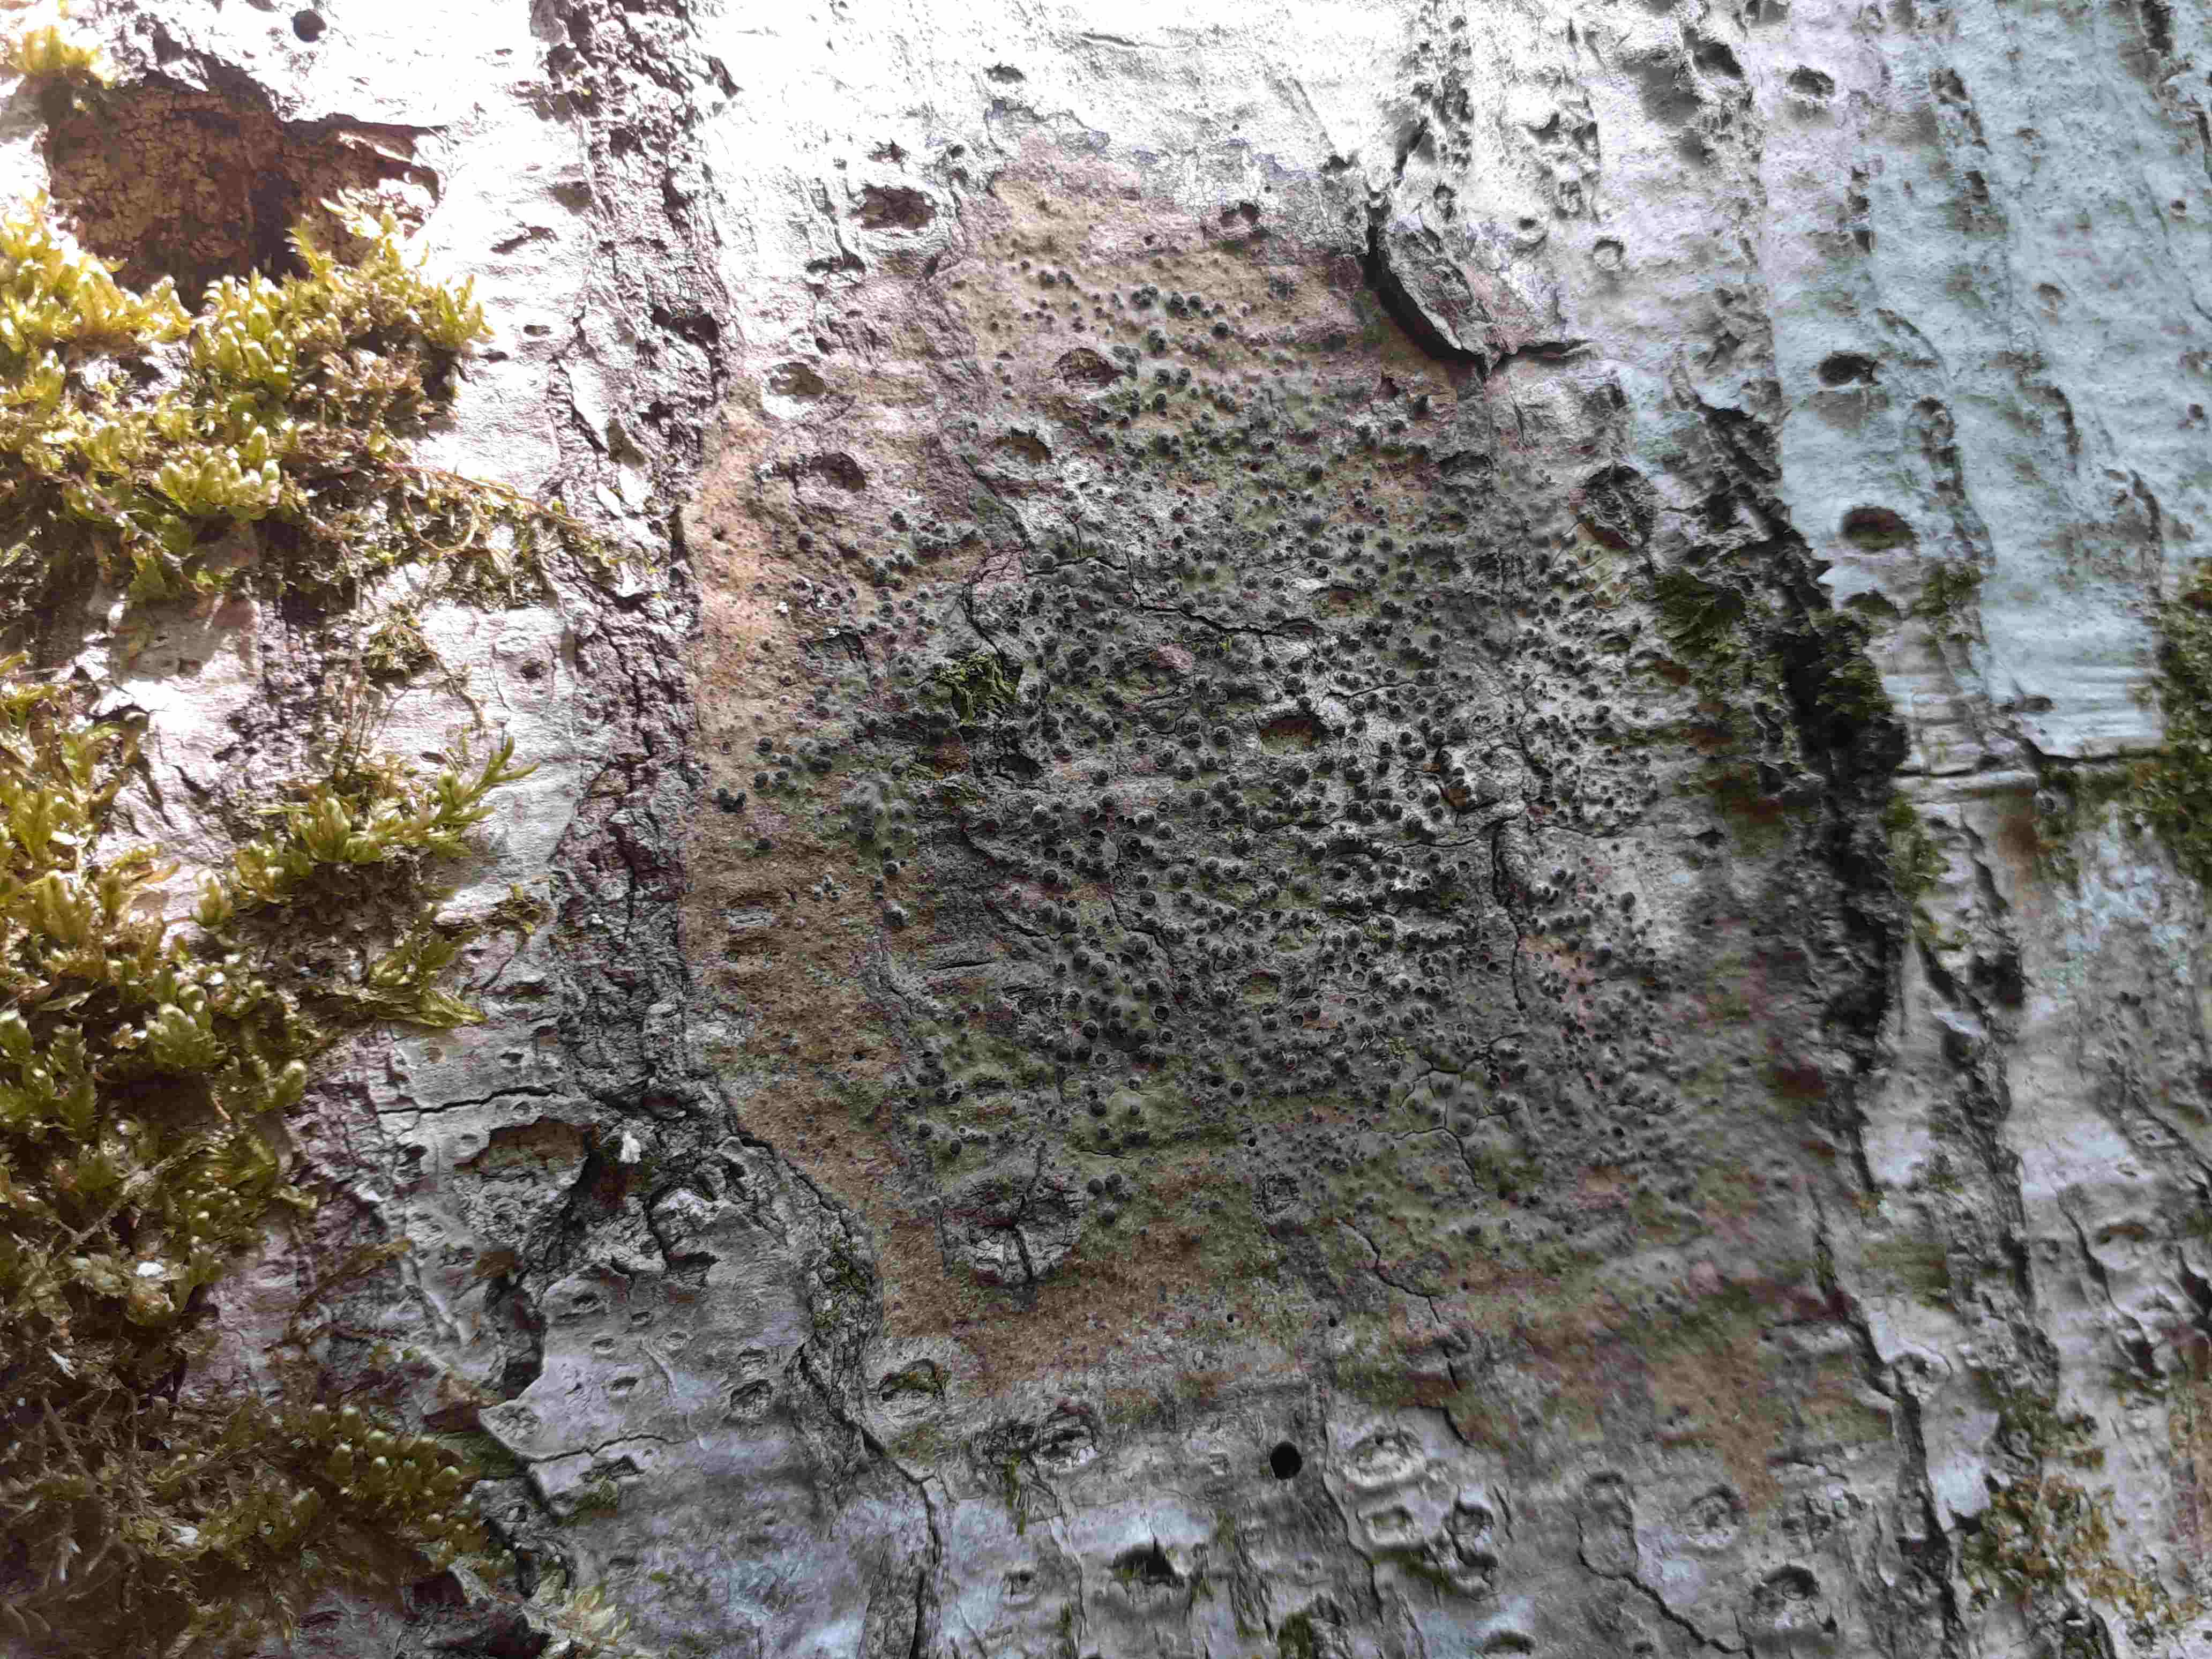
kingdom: Fungi
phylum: Ascomycota
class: Eurotiomycetes
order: Pyrenulales
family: Pyrenulaceae
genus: Pyrenula
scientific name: Pyrenula nitida
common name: glinsende kernelav
